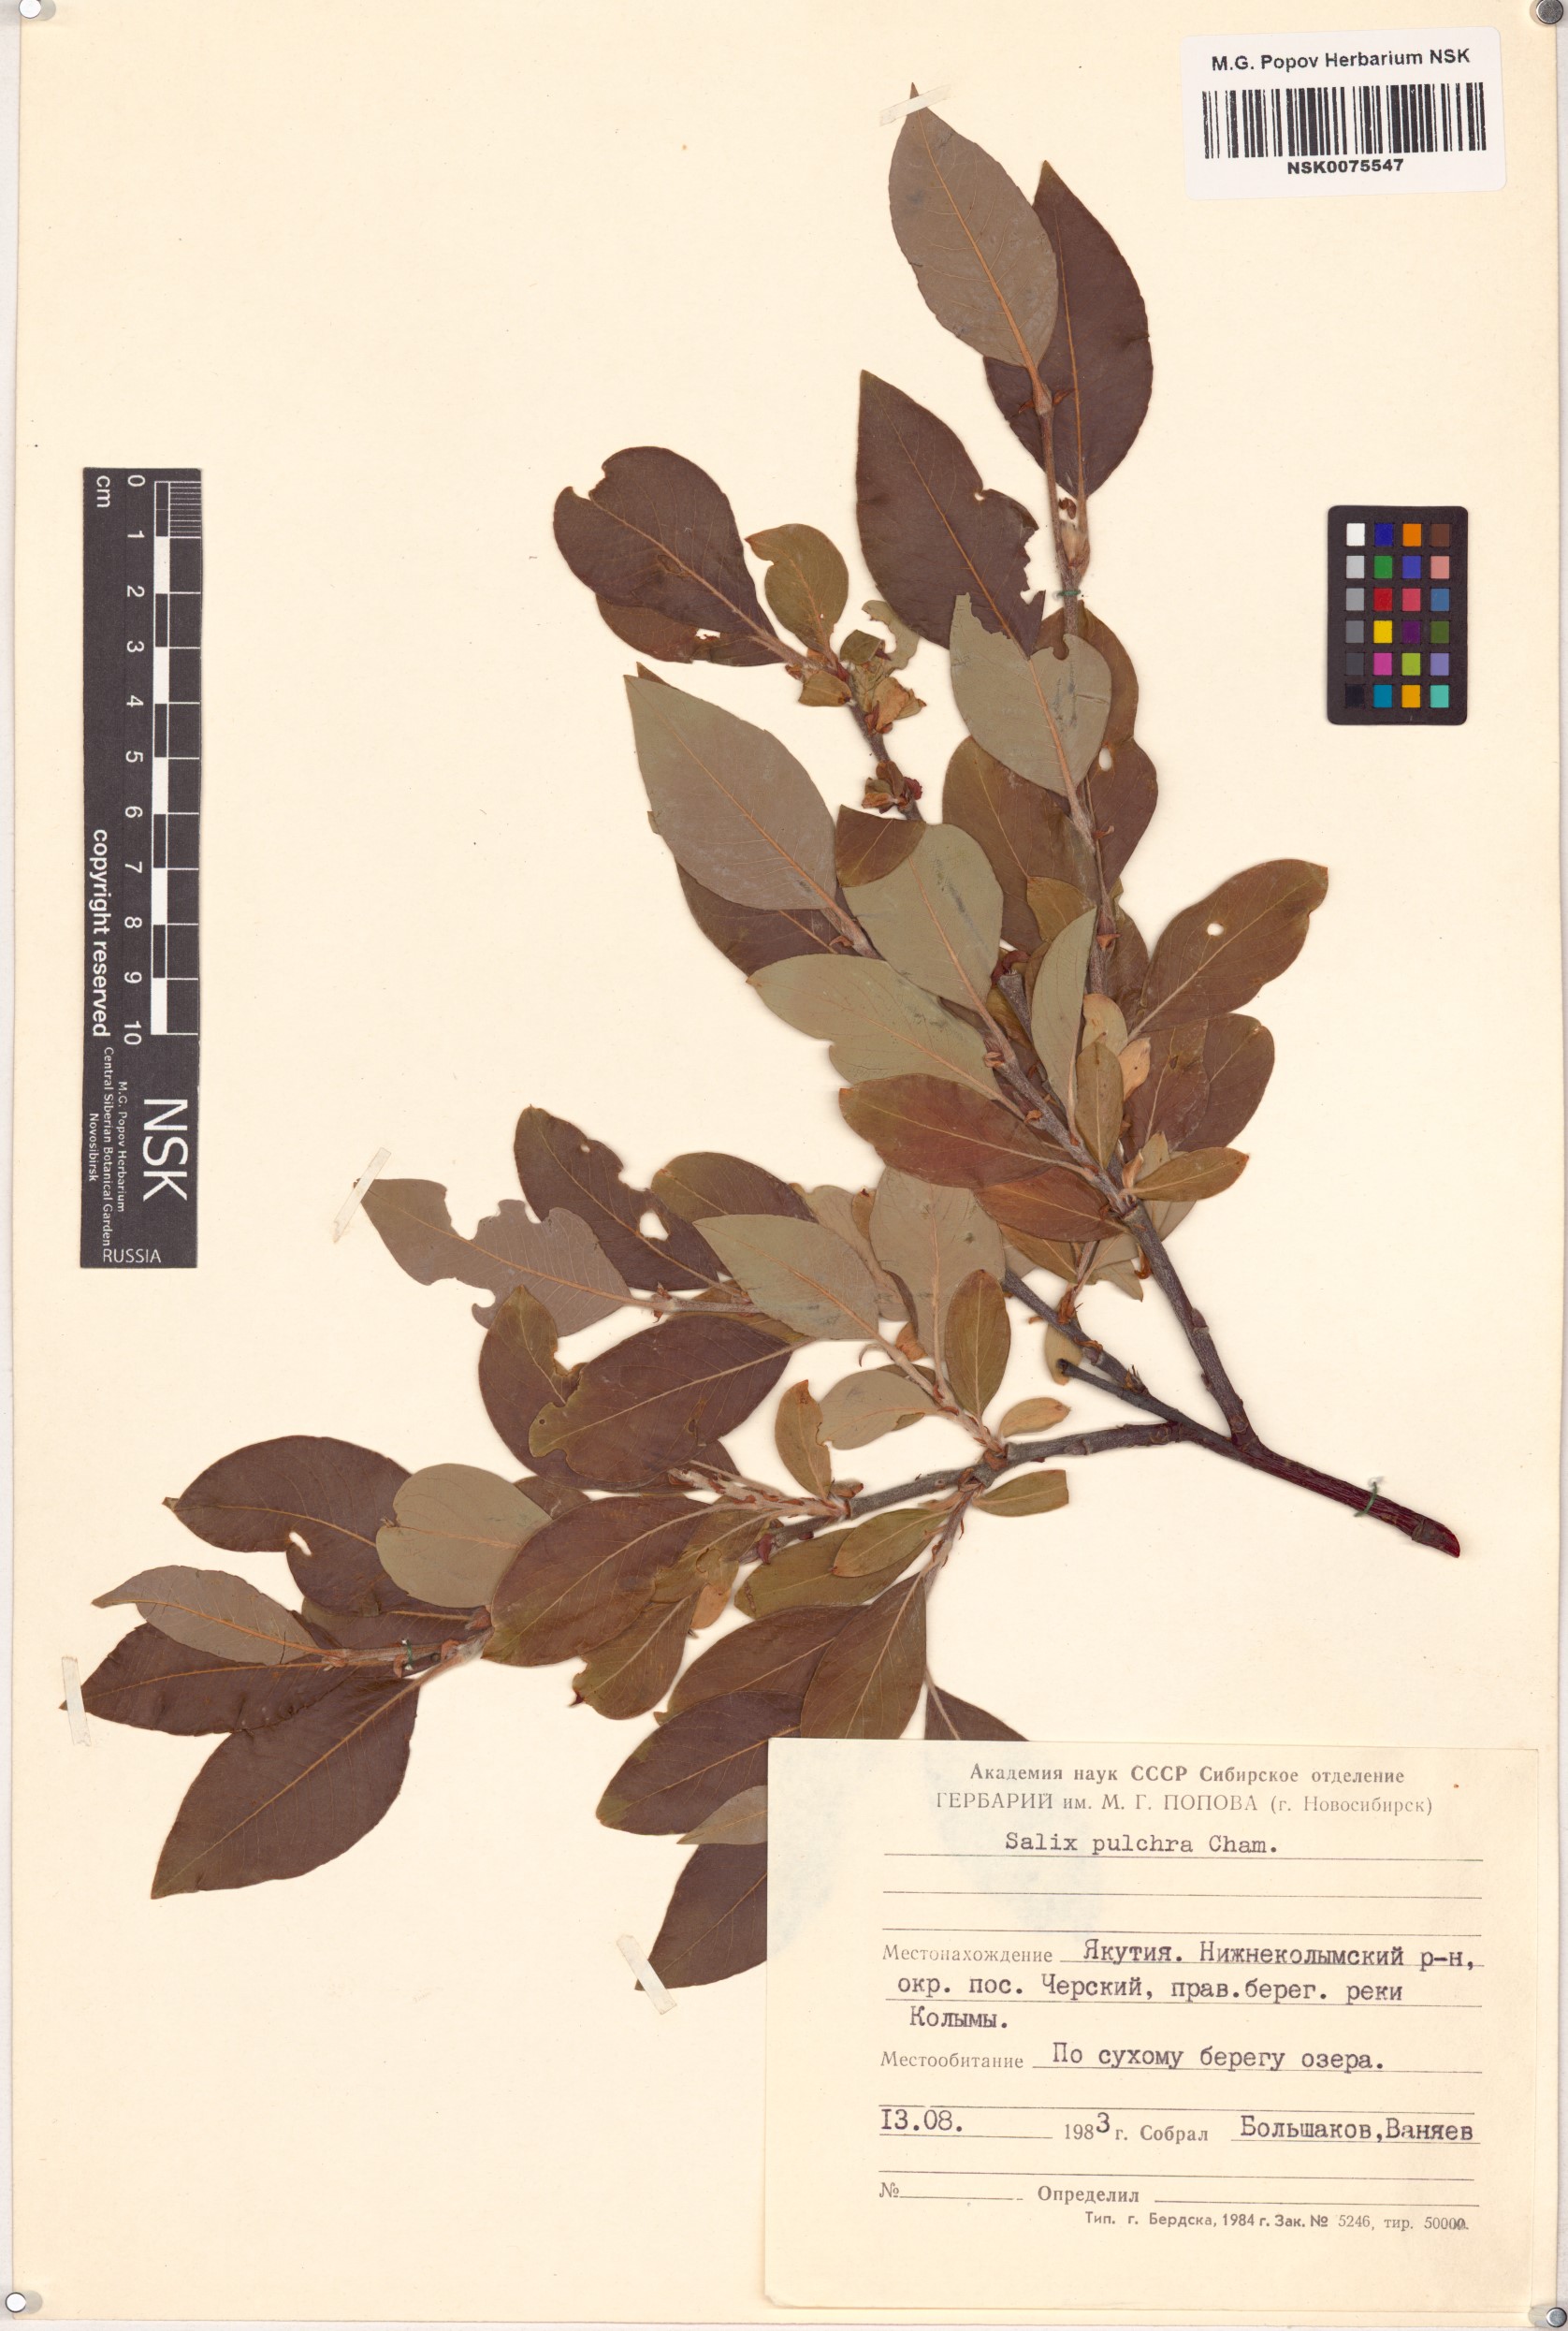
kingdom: Plantae
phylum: Tracheophyta
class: Magnoliopsida
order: Malpighiales
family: Salicaceae
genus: Salix
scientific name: Salix pulchra
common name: Diamond-leaved willow
